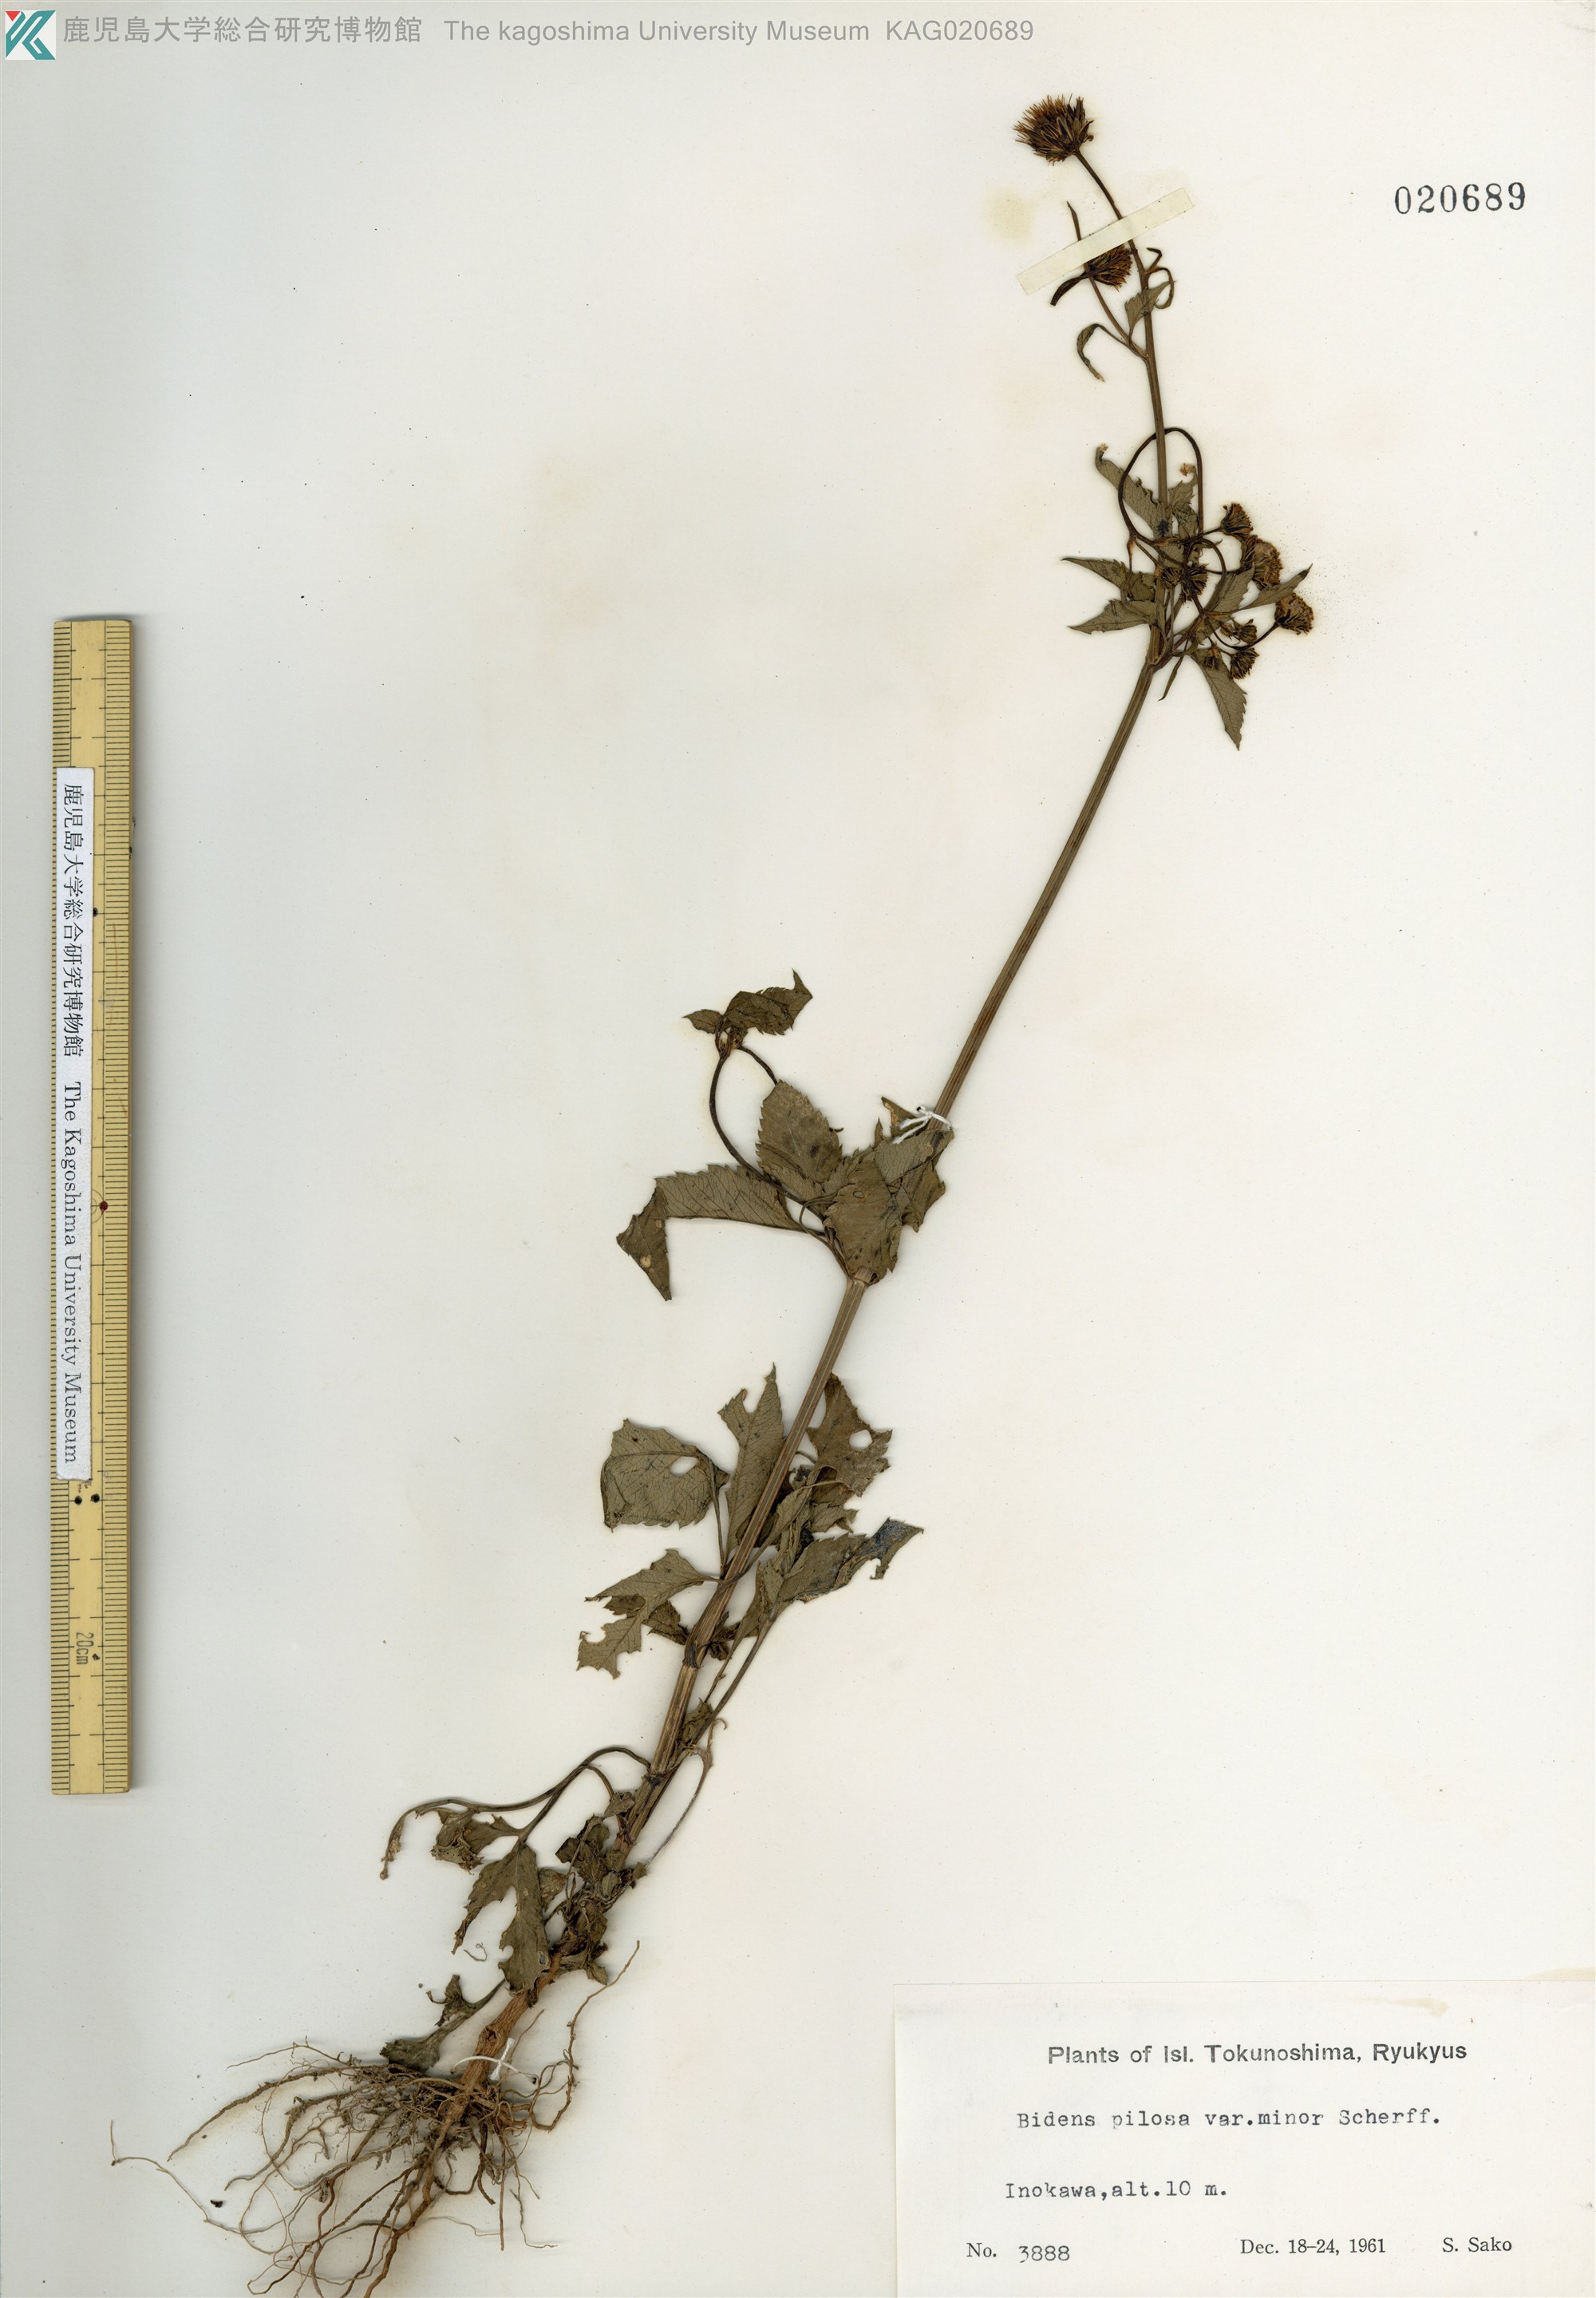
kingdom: Plantae
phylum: Tracheophyta
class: Magnoliopsida
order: Asterales
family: Asteraceae
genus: Bidens
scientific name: Bidens pilosa
